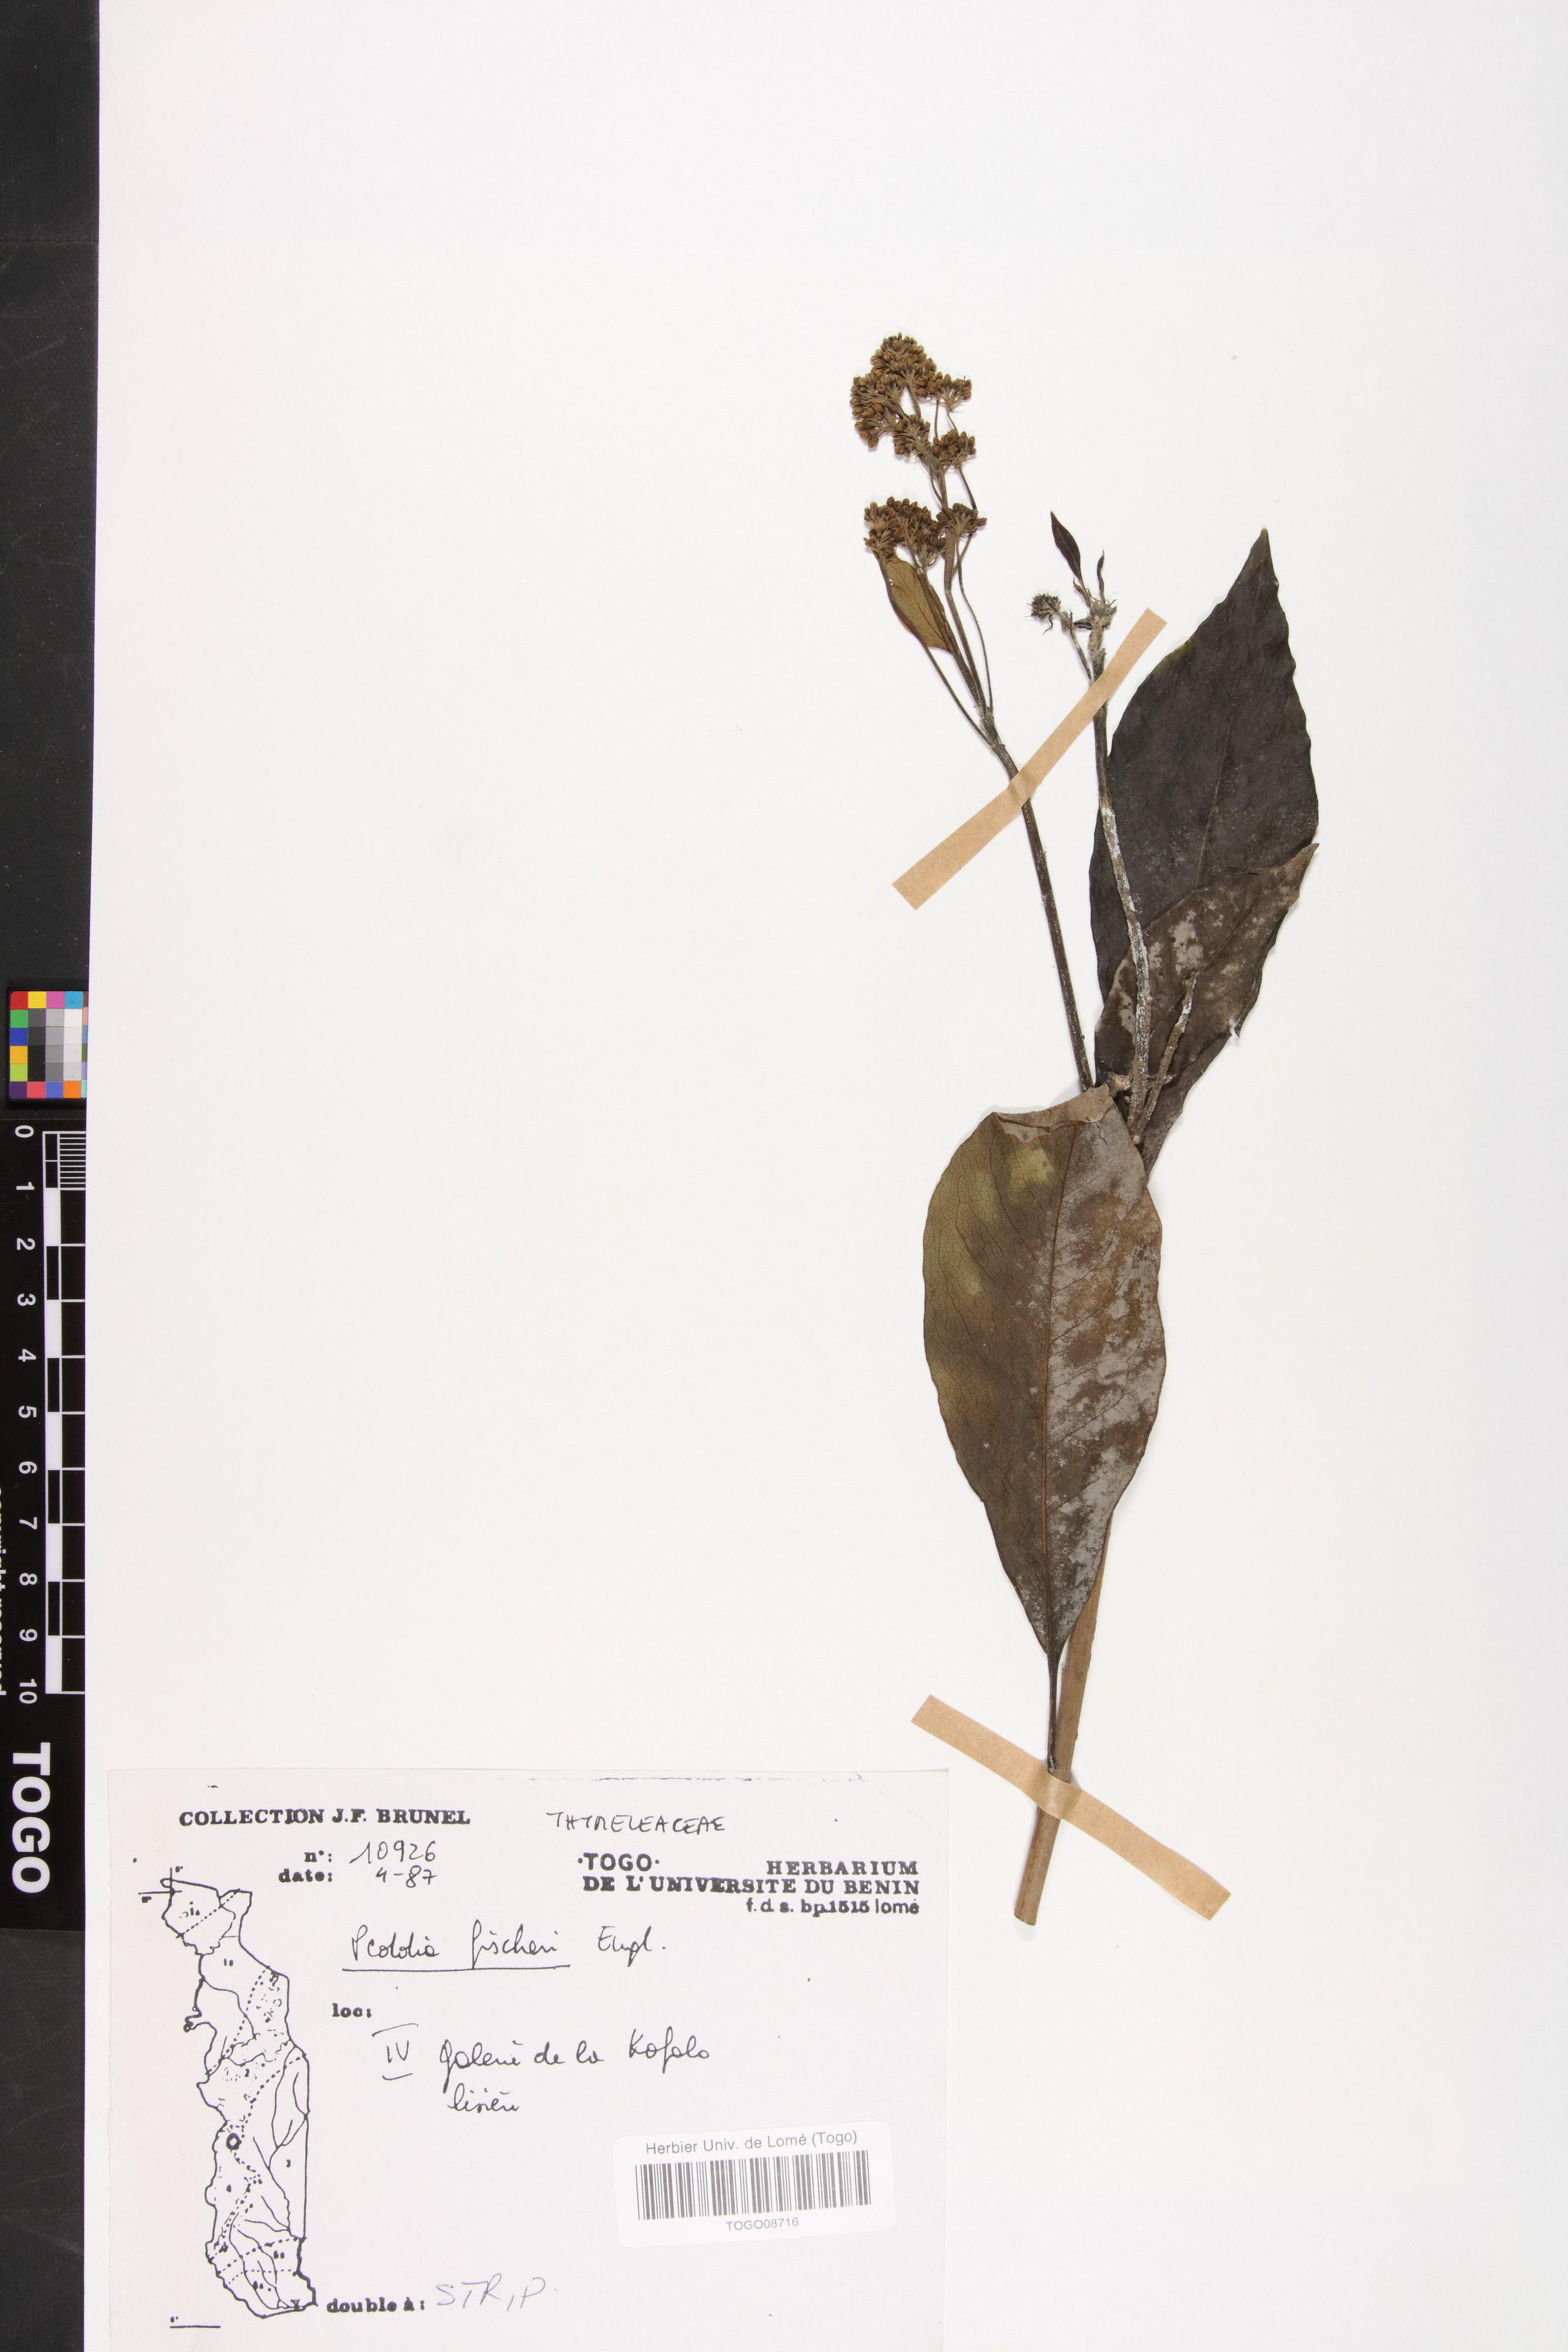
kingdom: Plantae
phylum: Tracheophyta
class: Magnoliopsida
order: Malvales
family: Thymelaeaceae
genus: Peddiea
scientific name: Peddiea fischeri
